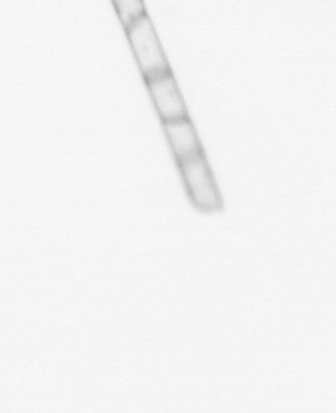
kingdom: Chromista
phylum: Ochrophyta
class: Bacillariophyceae
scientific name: Bacillariophyceae
